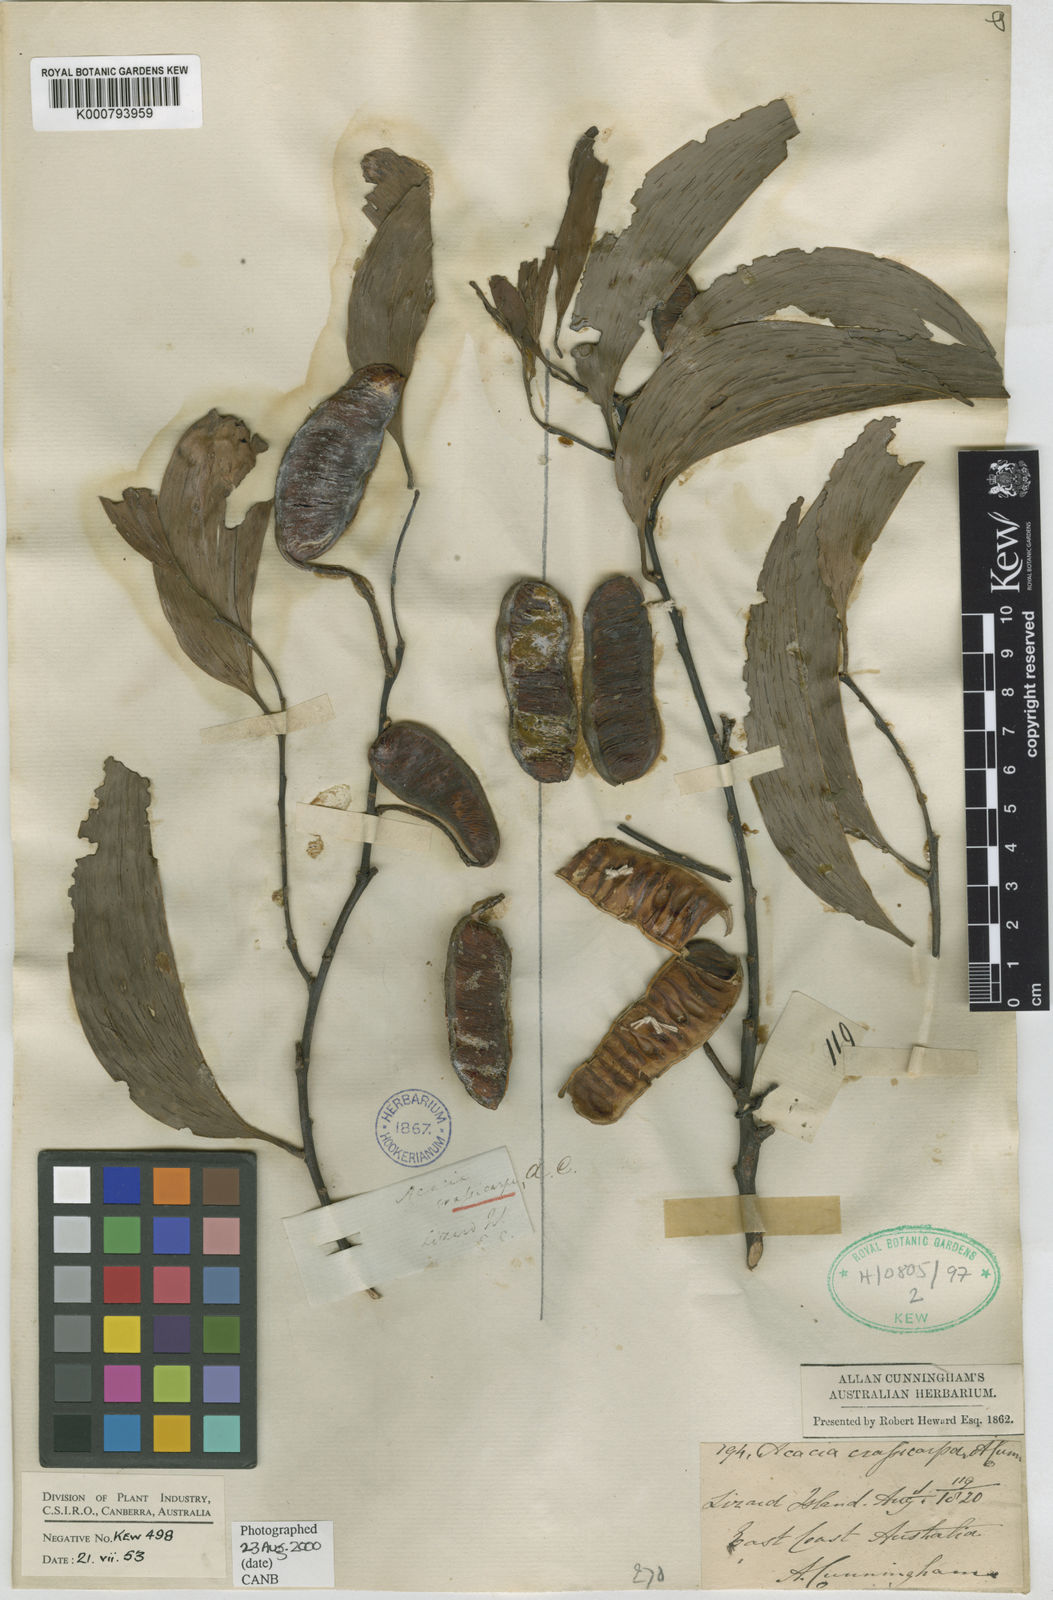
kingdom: Plantae
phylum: Tracheophyta
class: Magnoliopsida
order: Fabales
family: Fabaceae
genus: Acacia
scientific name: Acacia aulacocarpa
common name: Black wattle
